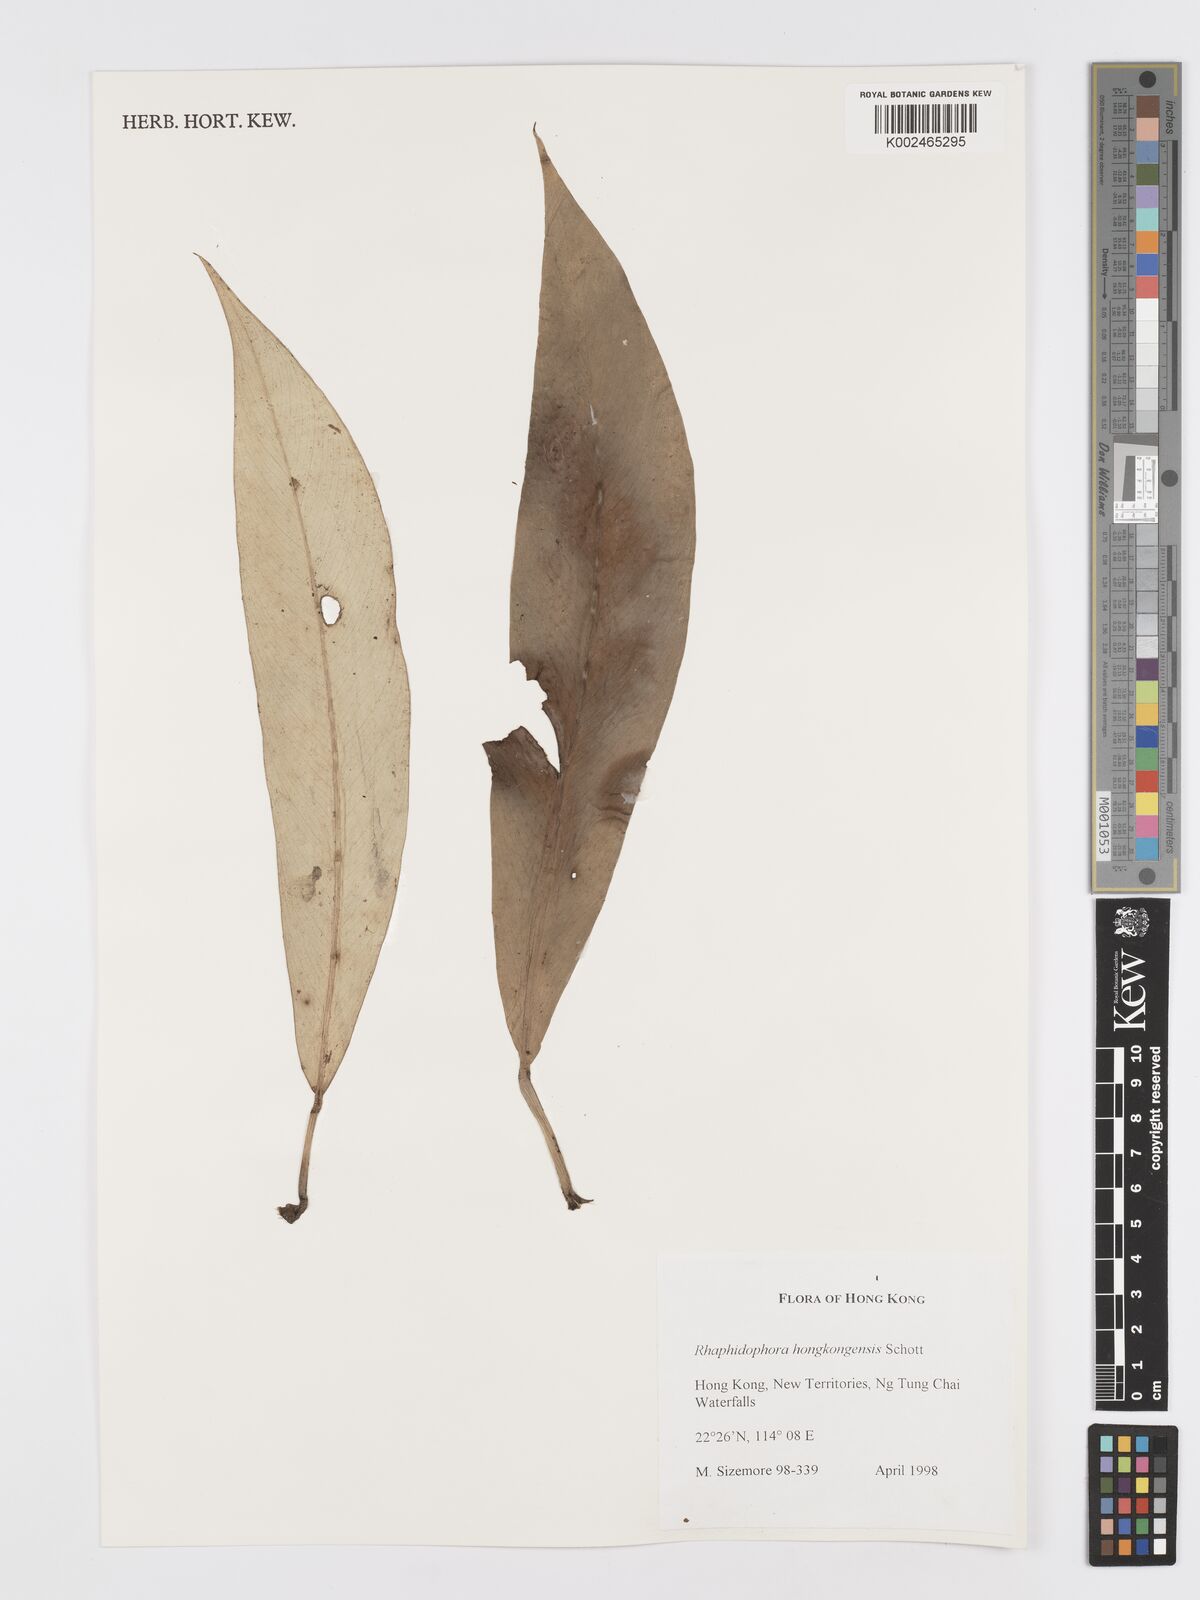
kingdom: Plantae
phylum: Tracheophyta
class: Liliopsida
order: Alismatales
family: Araceae
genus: Rhaphidophora
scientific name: Rhaphidophora hongkongensis
